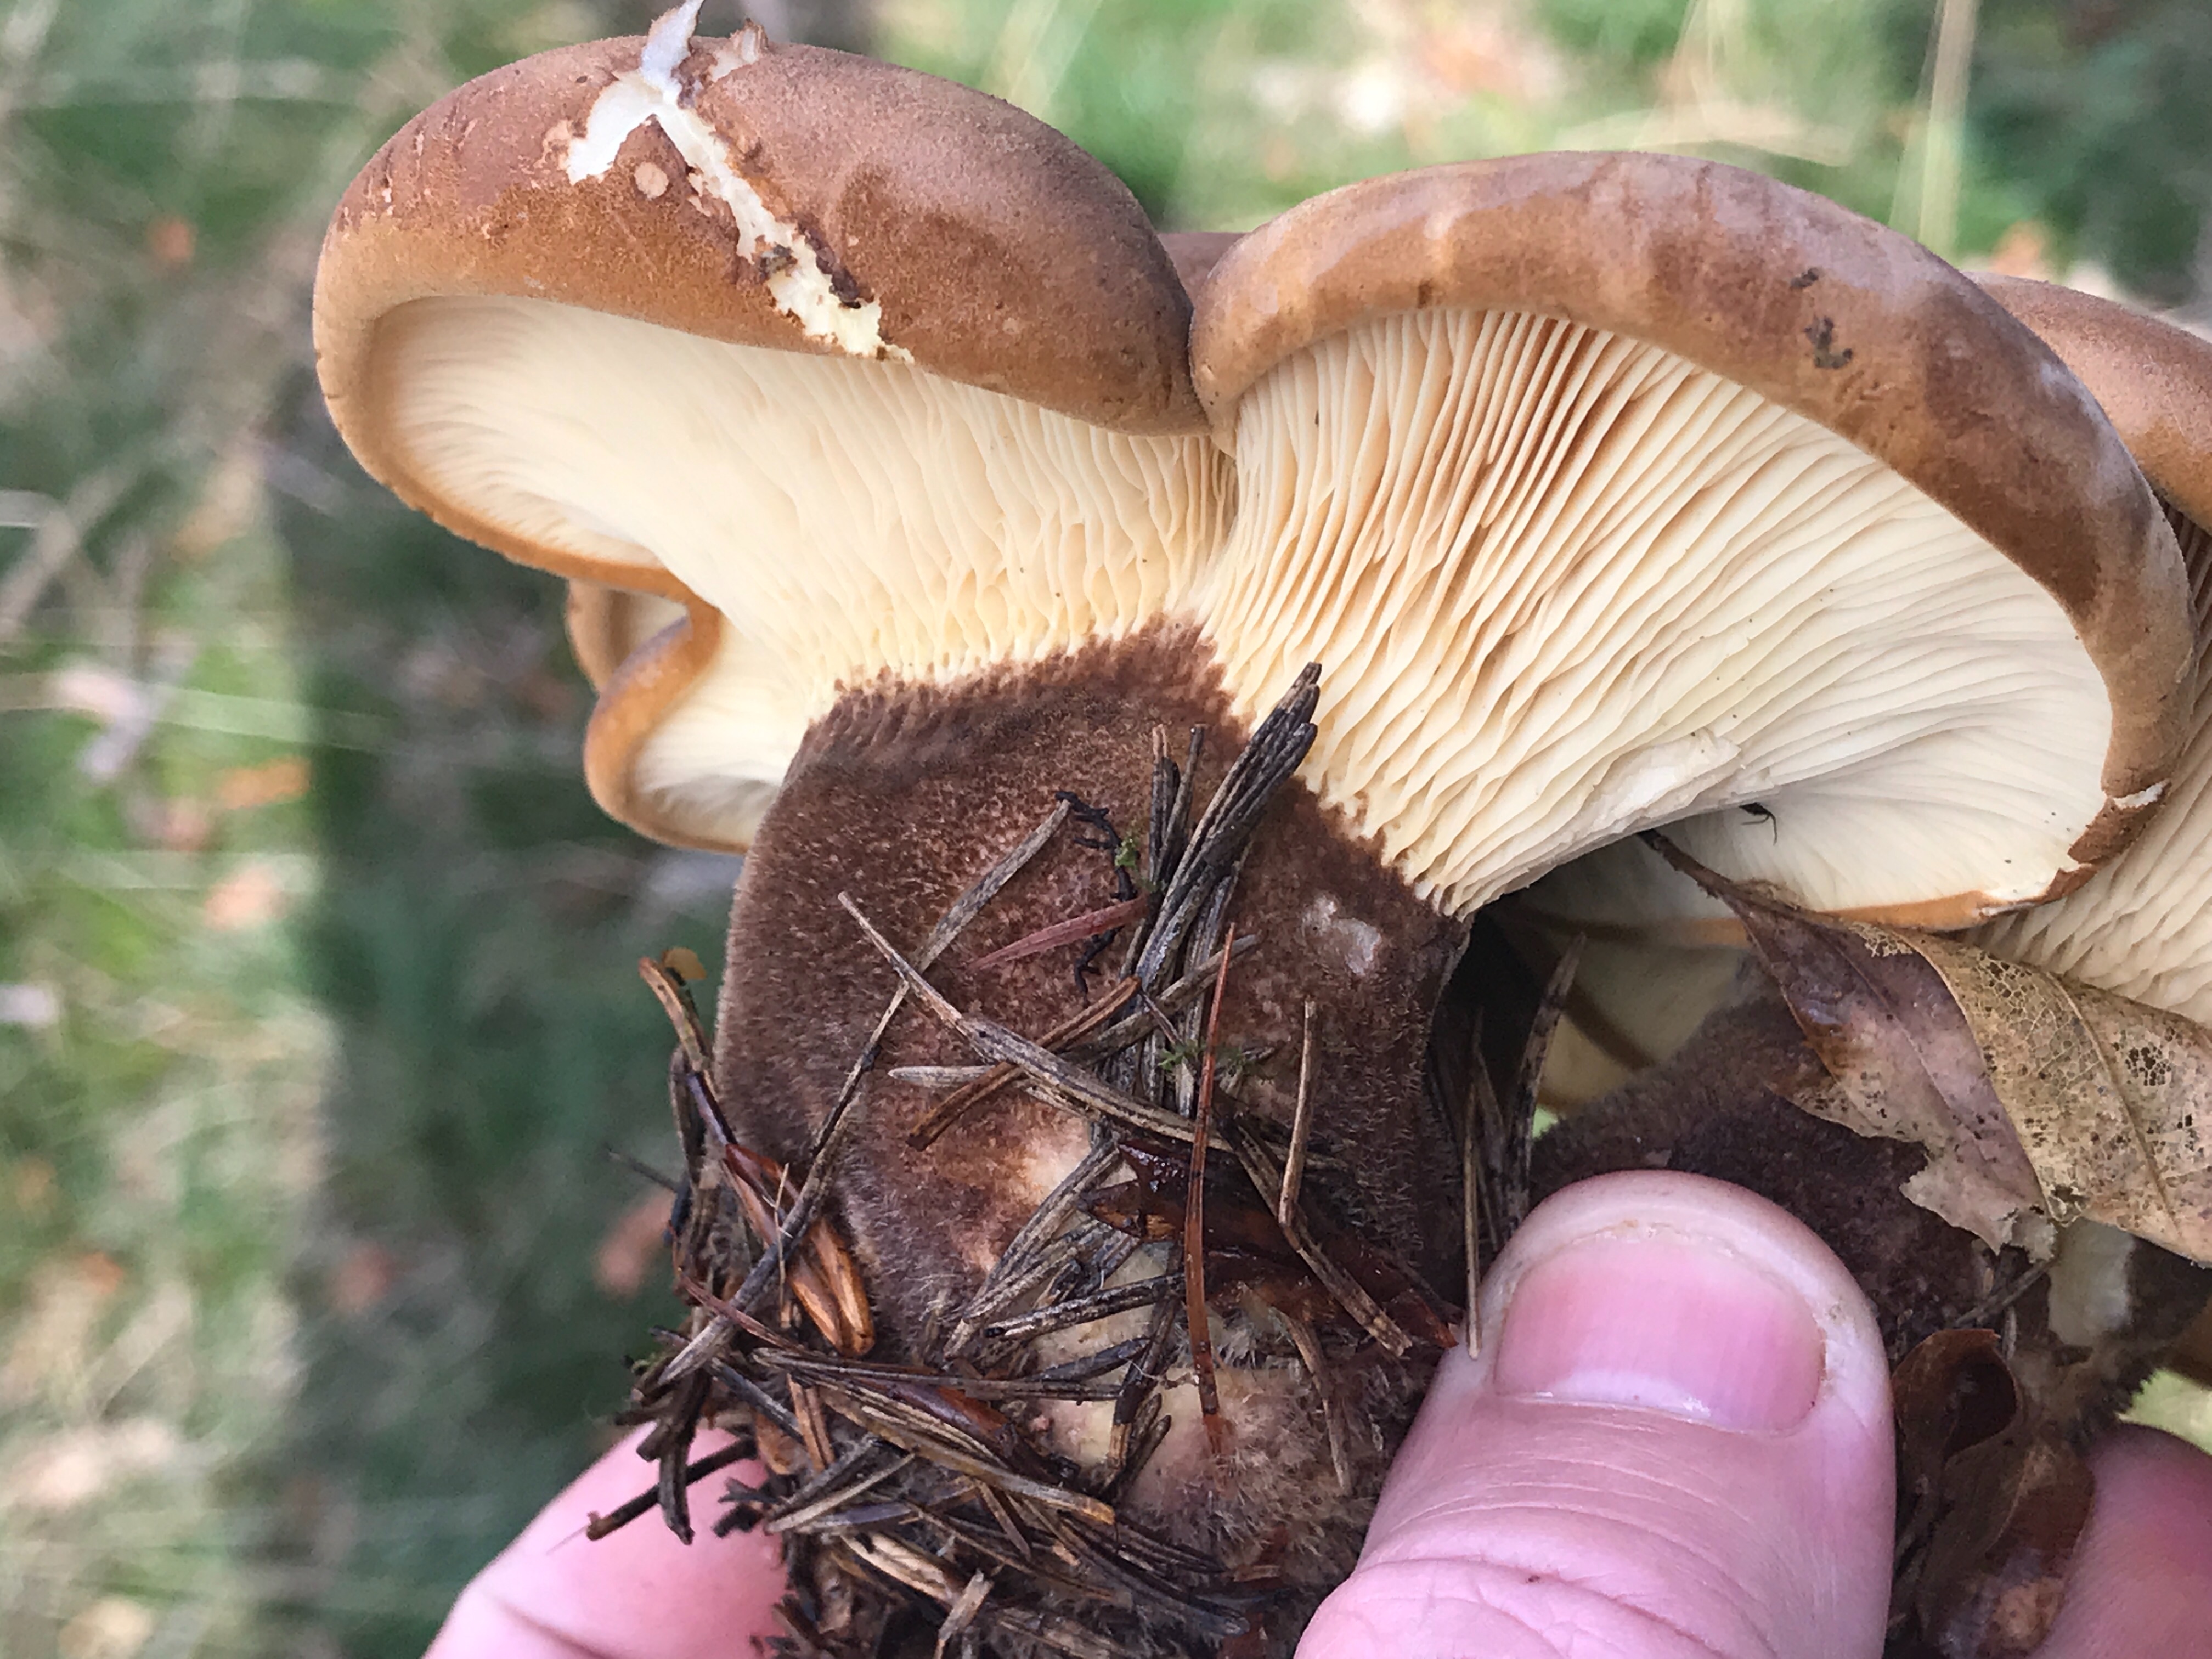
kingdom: Fungi
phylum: Basidiomycota
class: Agaricomycetes
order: Boletales
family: Tapinellaceae
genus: Tapinella
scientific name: Tapinella atrotomentosa
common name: sortfiltet viftesvamp
